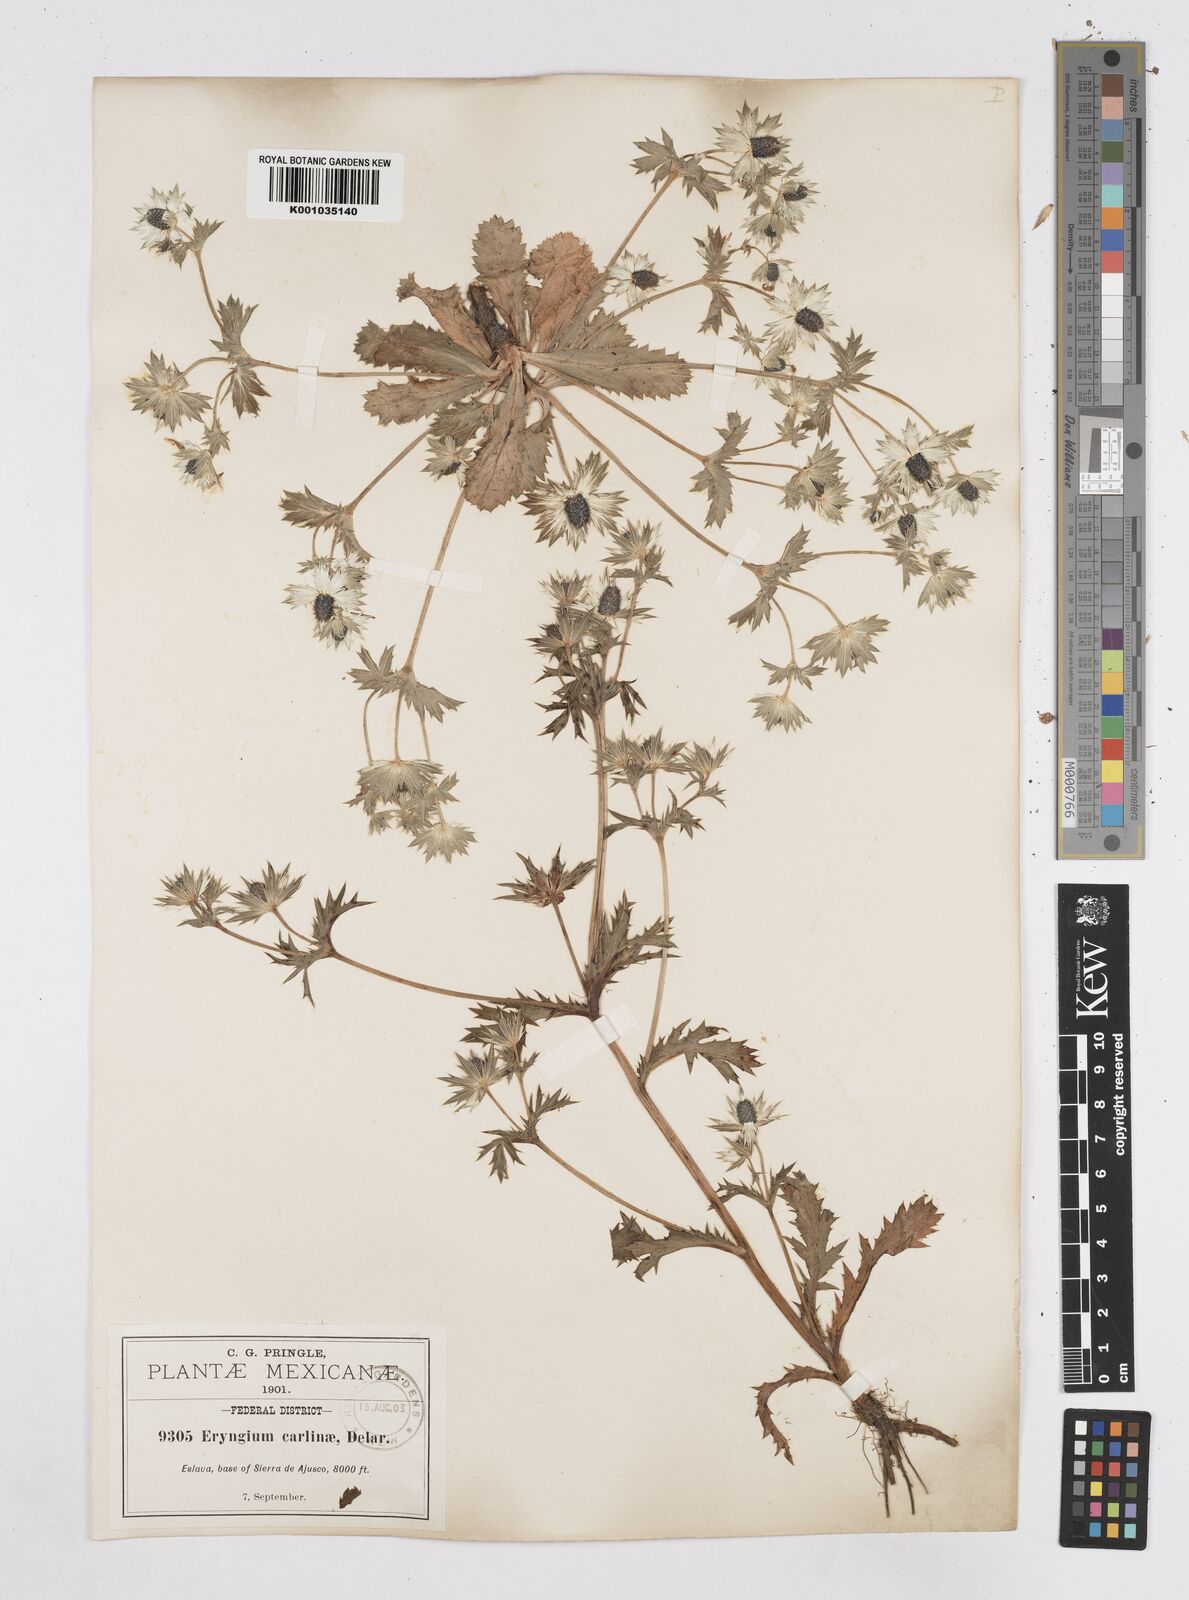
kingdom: Plantae
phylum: Tracheophyta
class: Magnoliopsida
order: Apiales
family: Apiaceae
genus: Eryngium
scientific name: Eryngium carlinae
